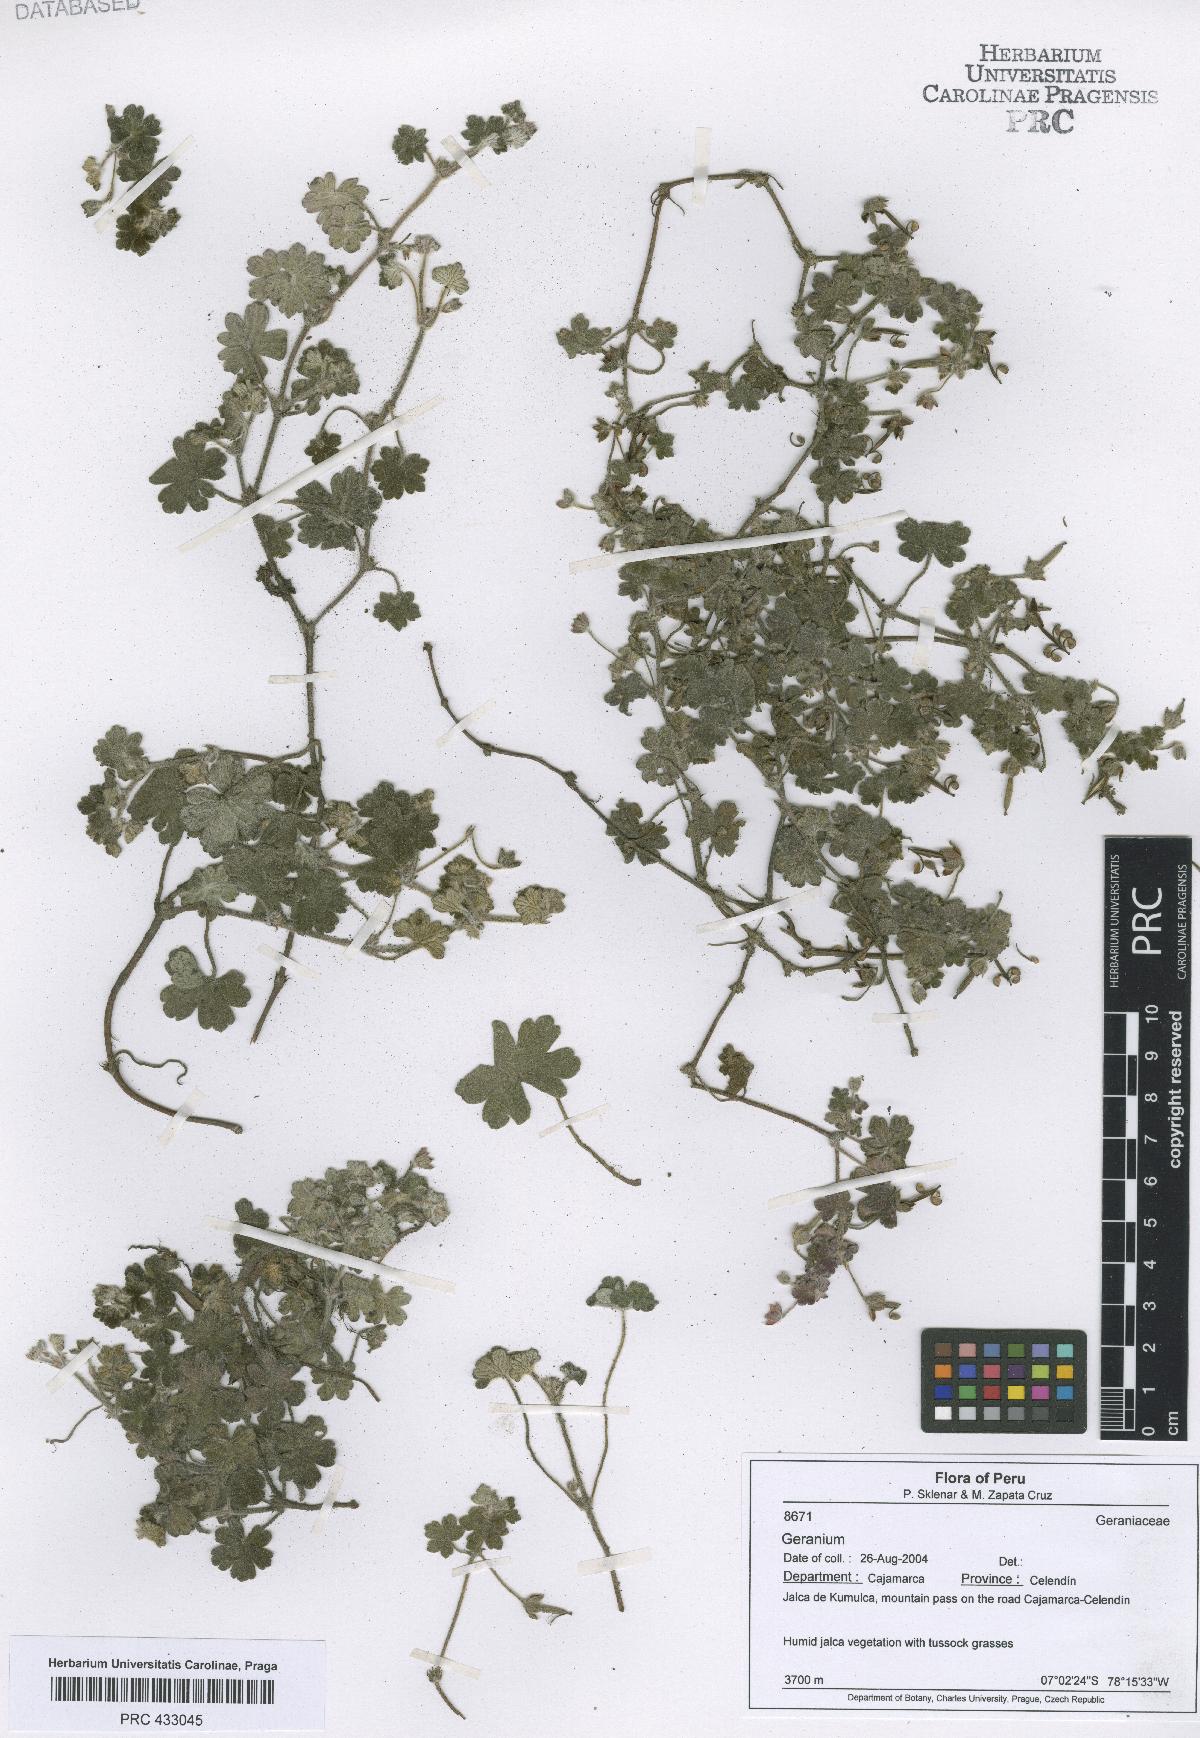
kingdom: Plantae
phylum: Tracheophyta
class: Magnoliopsida
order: Geraniales
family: Geraniaceae
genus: Geranium
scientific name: Geranium peruvianum
